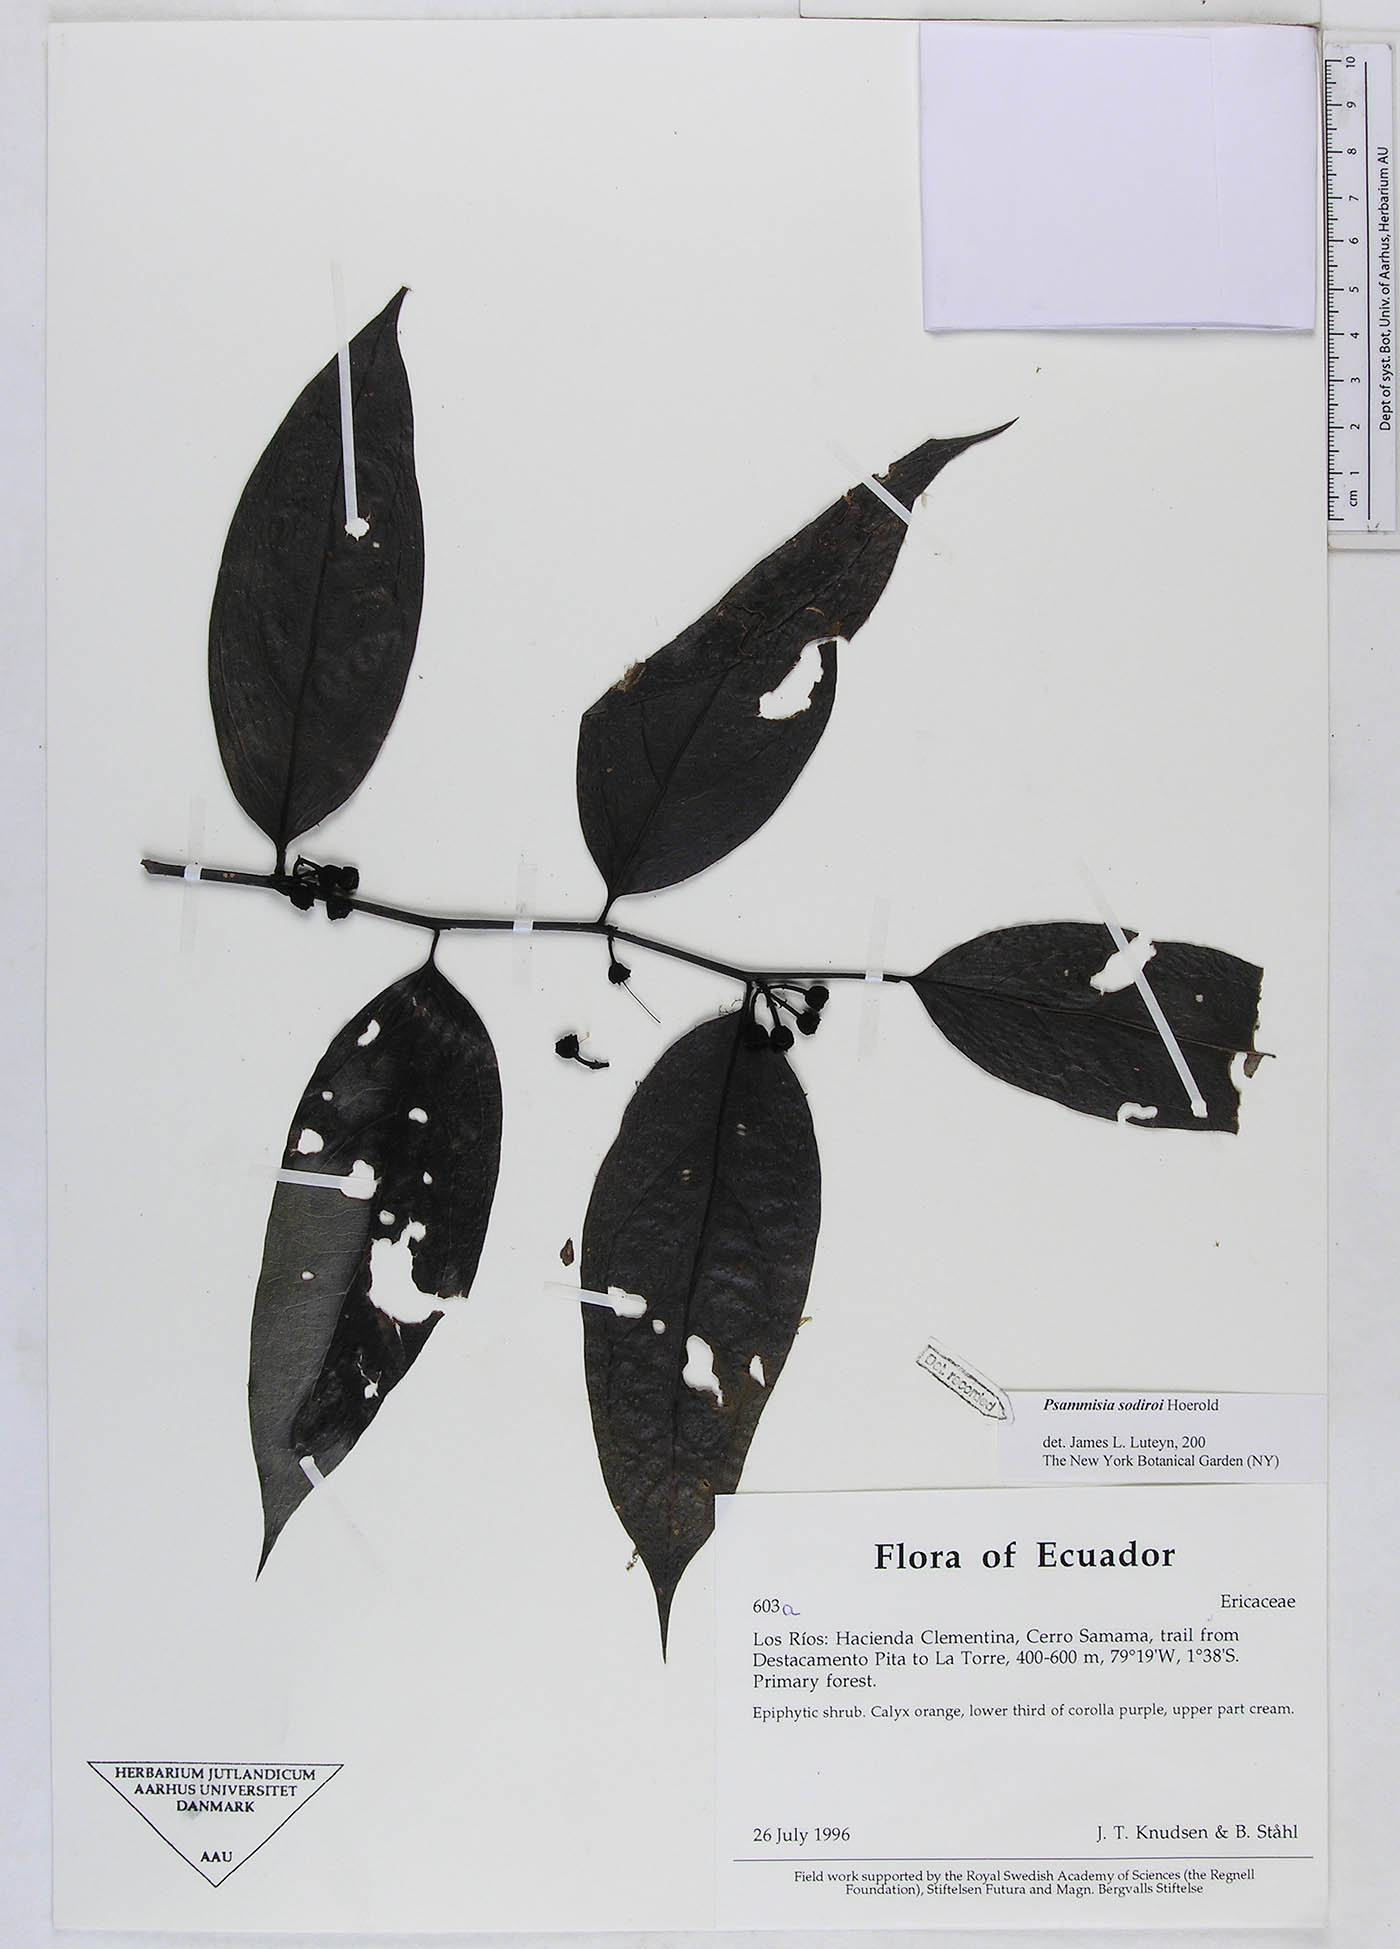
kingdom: Plantae
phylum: Tracheophyta
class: Magnoliopsida
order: Ericales
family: Ericaceae
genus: Psammisia
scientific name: Psammisia sodiroi
